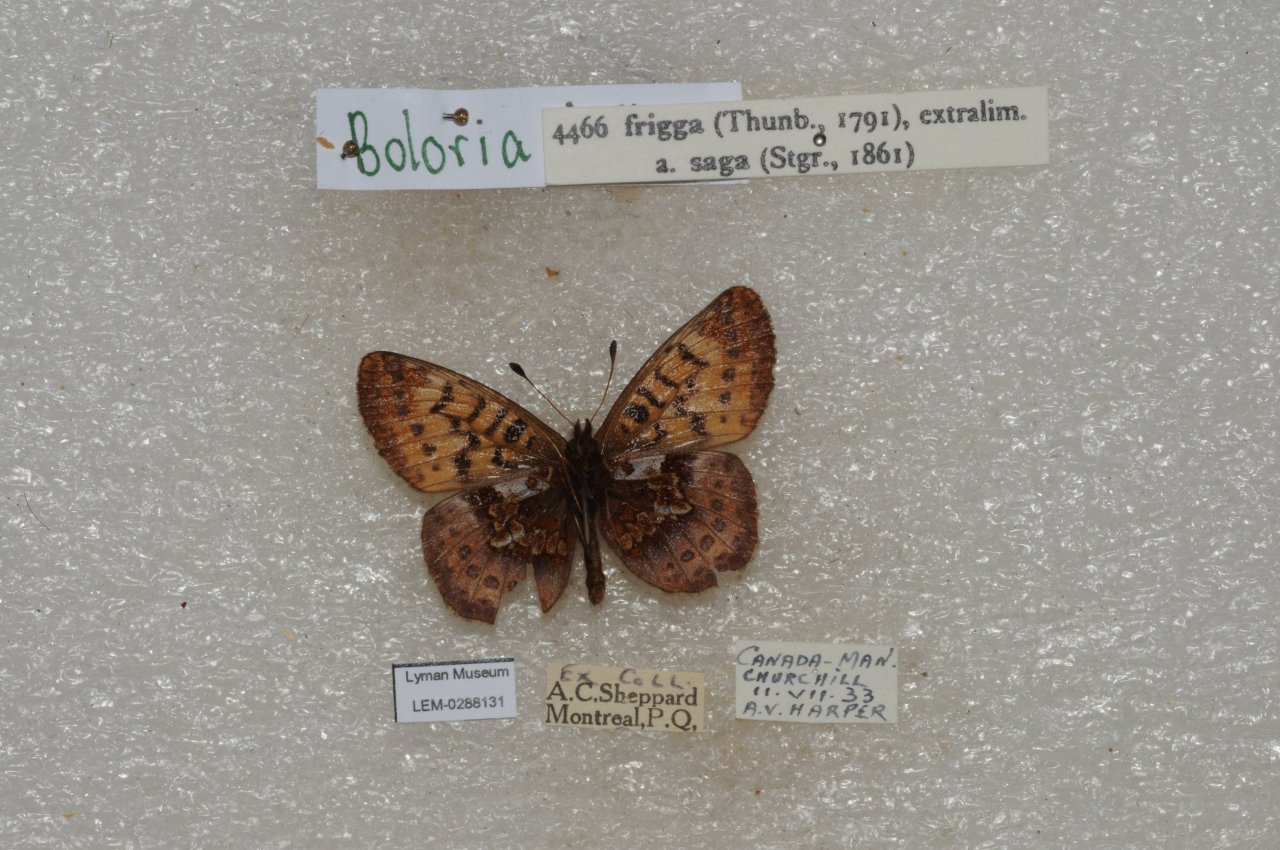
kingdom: Animalia
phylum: Arthropoda
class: Insecta
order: Lepidoptera
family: Nymphalidae
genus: Boloria
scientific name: Boloria frigga
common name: Frigga Fritillary
